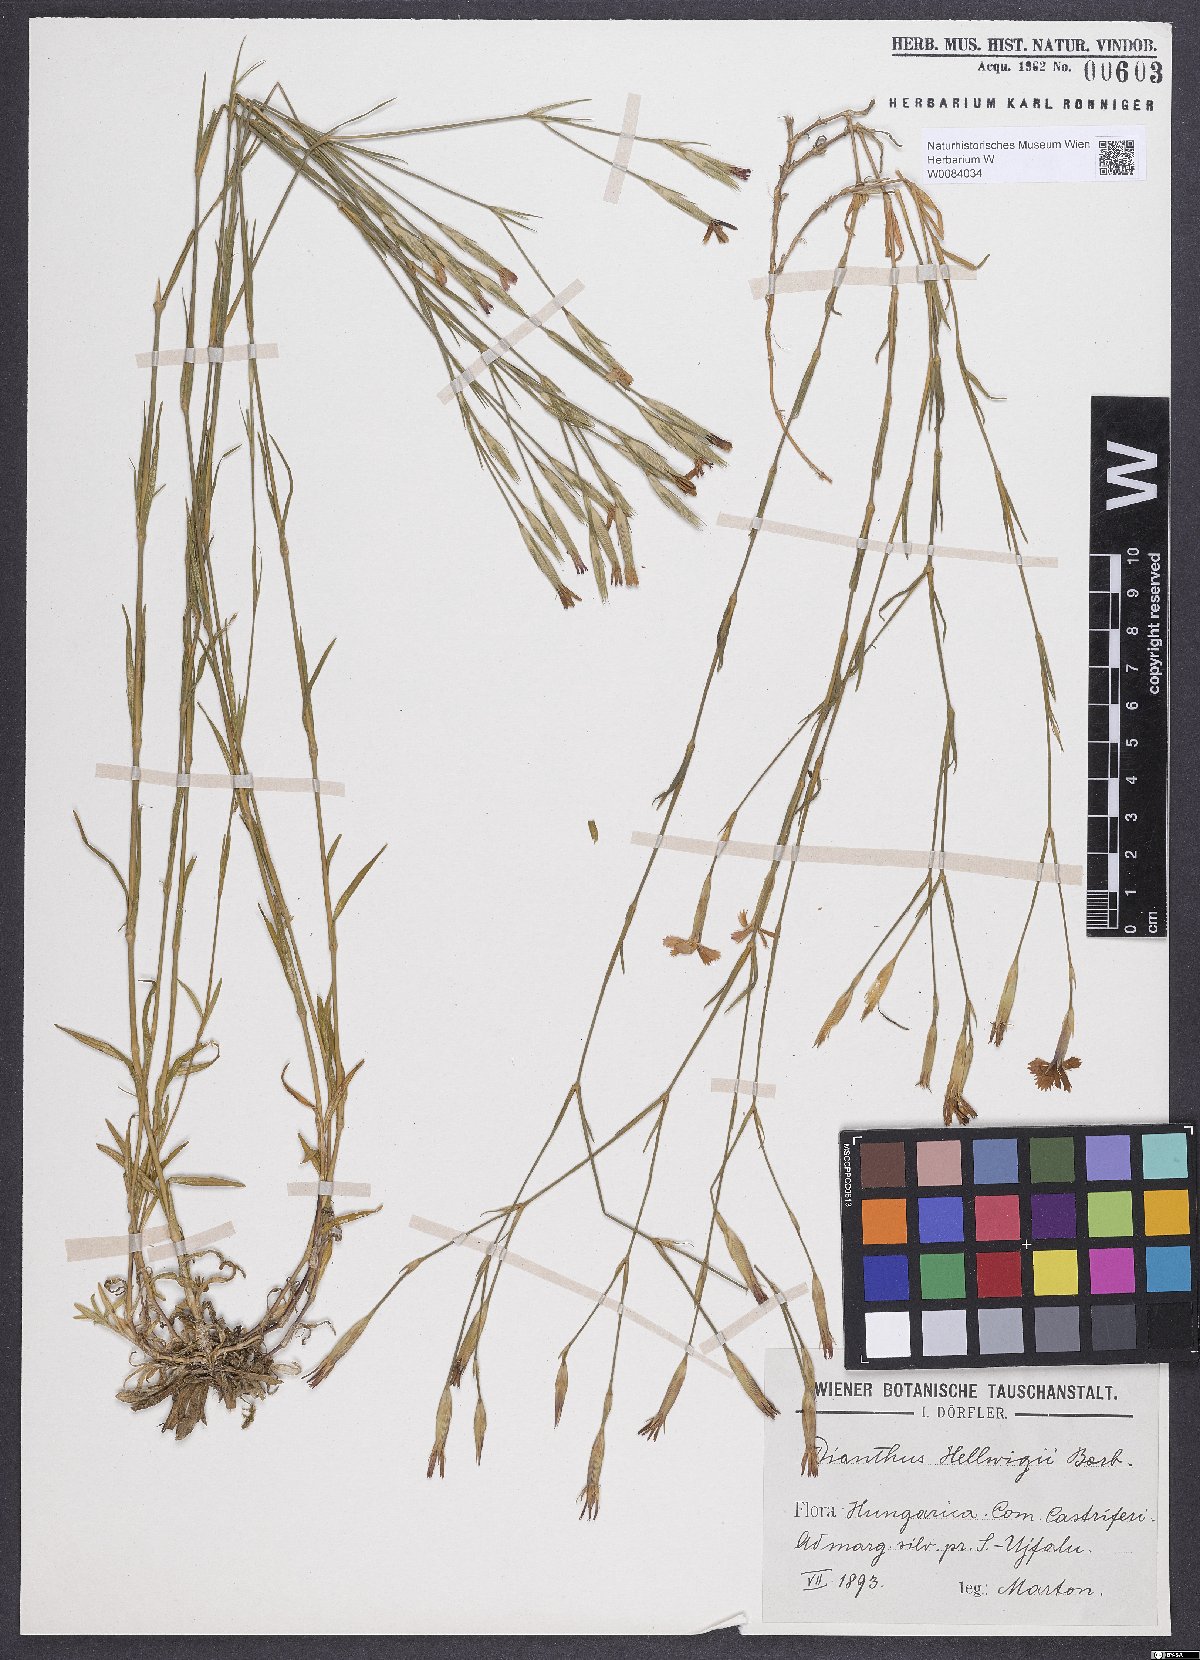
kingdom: Plantae
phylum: Tracheophyta
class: Magnoliopsida
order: Caryophyllales
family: Caryophyllaceae
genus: Dianthus
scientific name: Dianthus hellwigii
